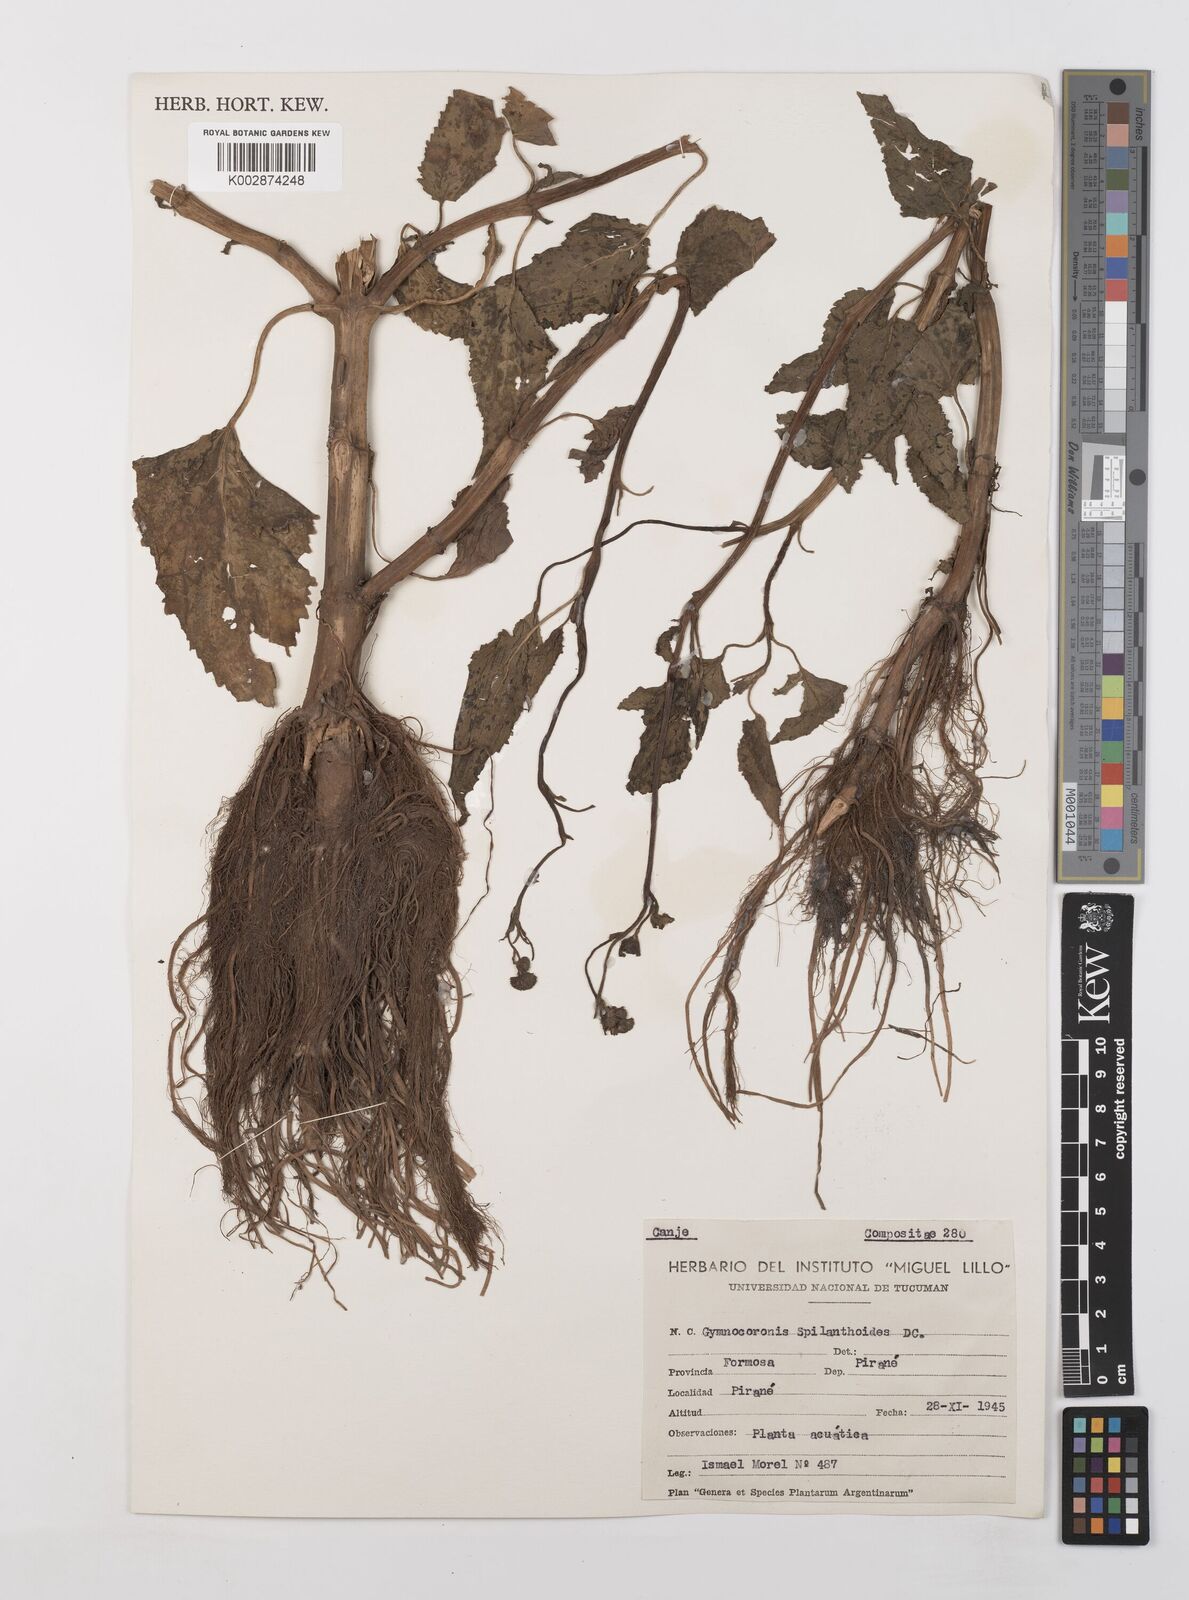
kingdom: Plantae
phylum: Tracheophyta
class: Magnoliopsida
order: Asterales
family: Asteraceae
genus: Gymnocoronis
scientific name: Gymnocoronis spilanthoides
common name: Senegal teaplant
